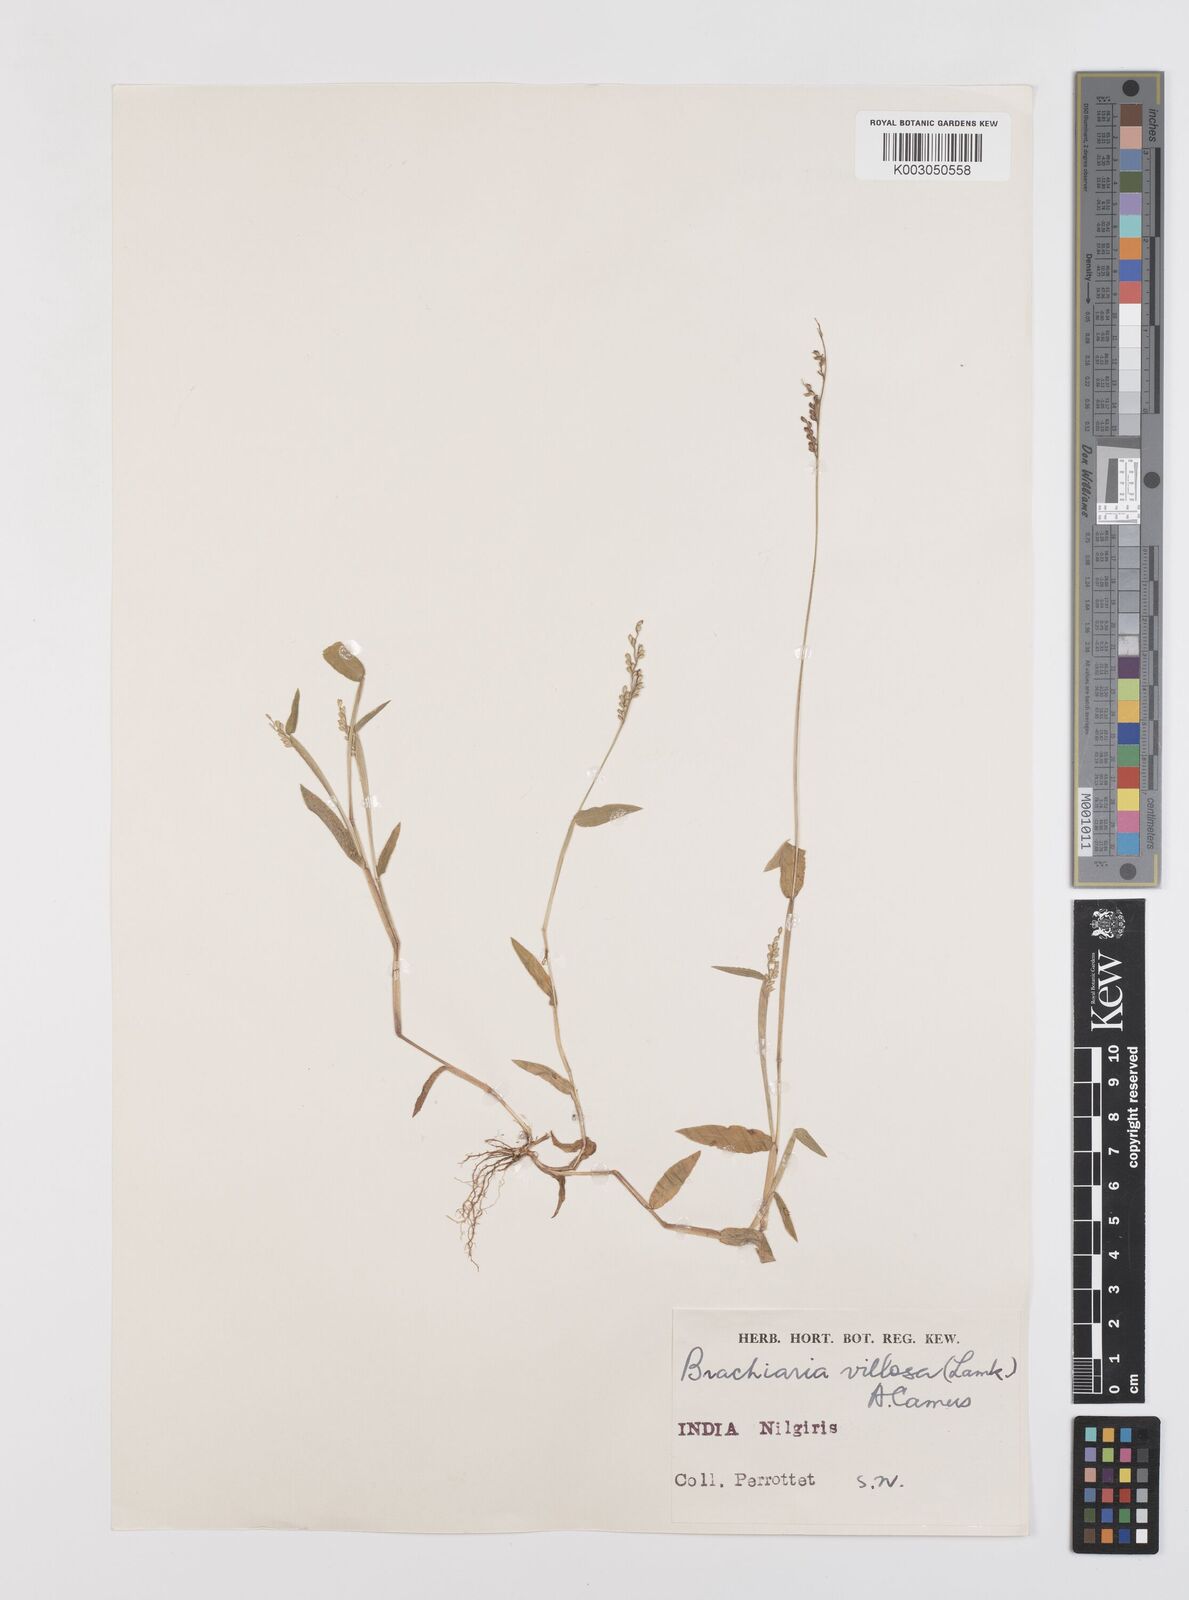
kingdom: Plantae
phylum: Tracheophyta
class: Liliopsida
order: Poales
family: Poaceae
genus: Urochloa
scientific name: Urochloa villosa
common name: Hairy signalgrass
